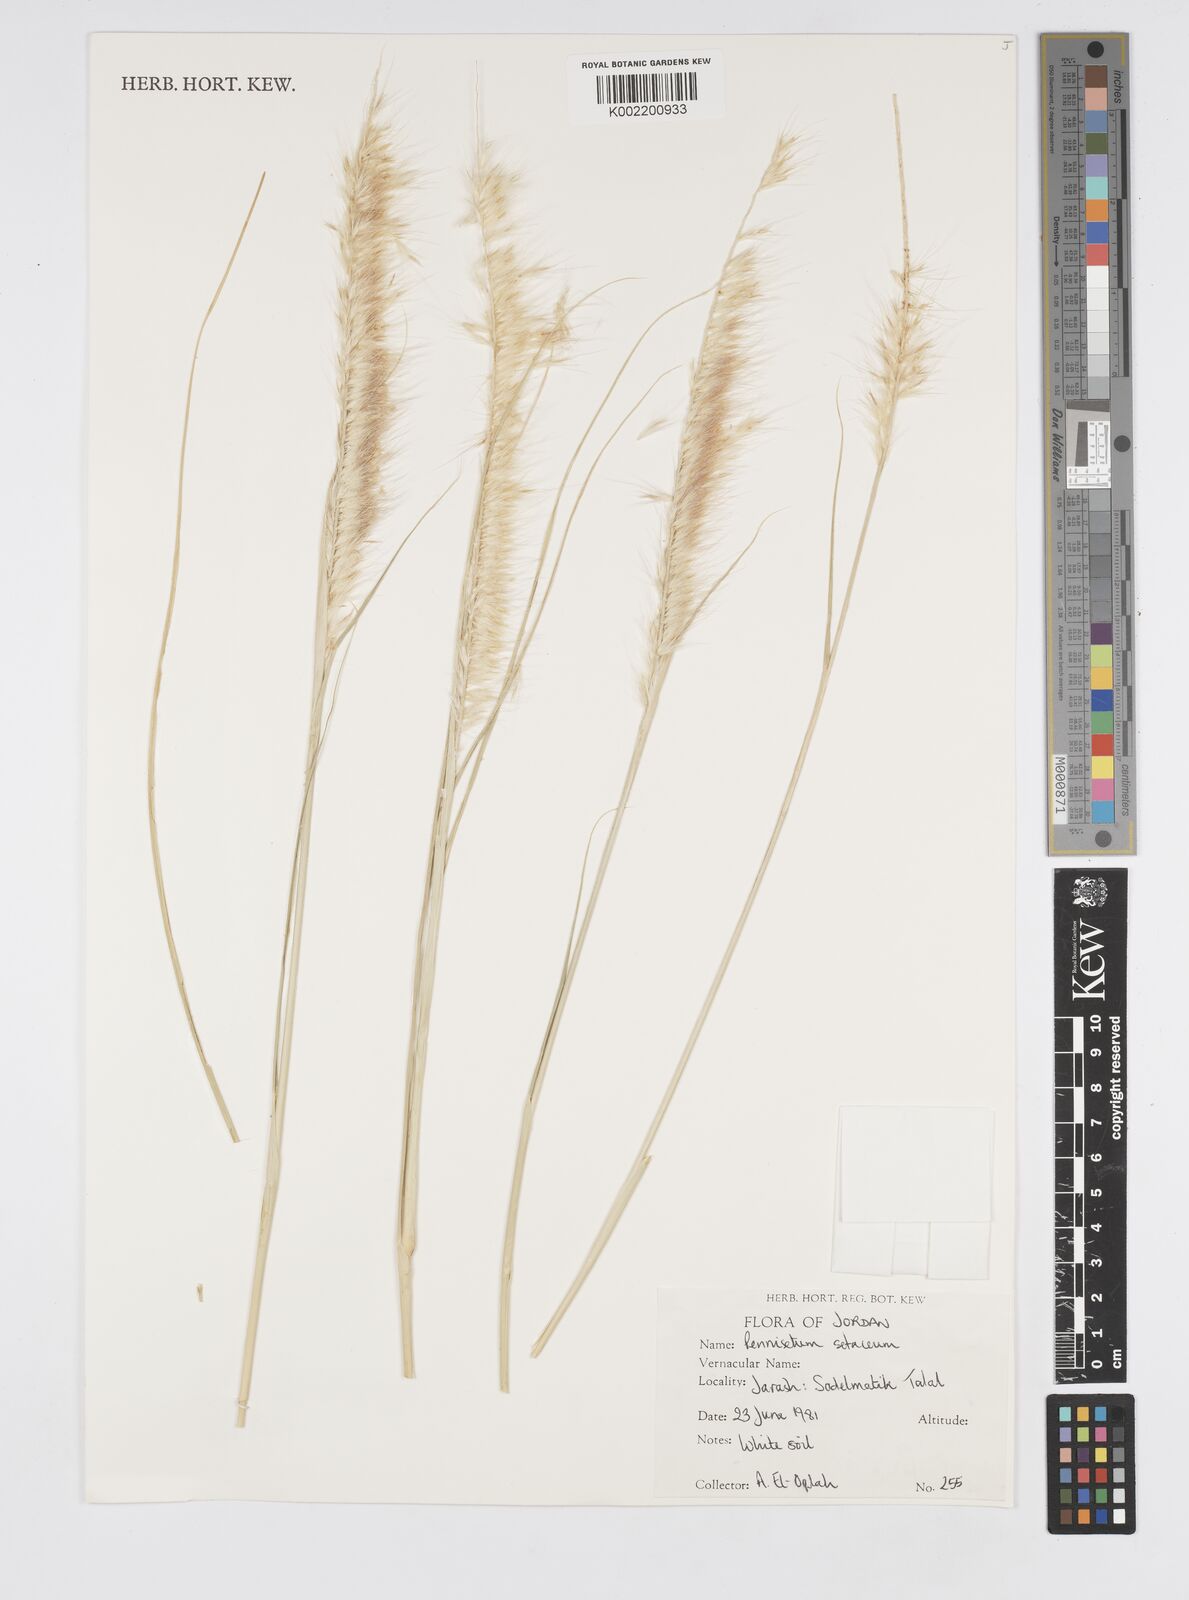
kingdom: Plantae
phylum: Tracheophyta
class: Liliopsida
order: Poales
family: Poaceae
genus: Cenchrus
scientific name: Cenchrus setaceus
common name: Crimson fountaingrass
